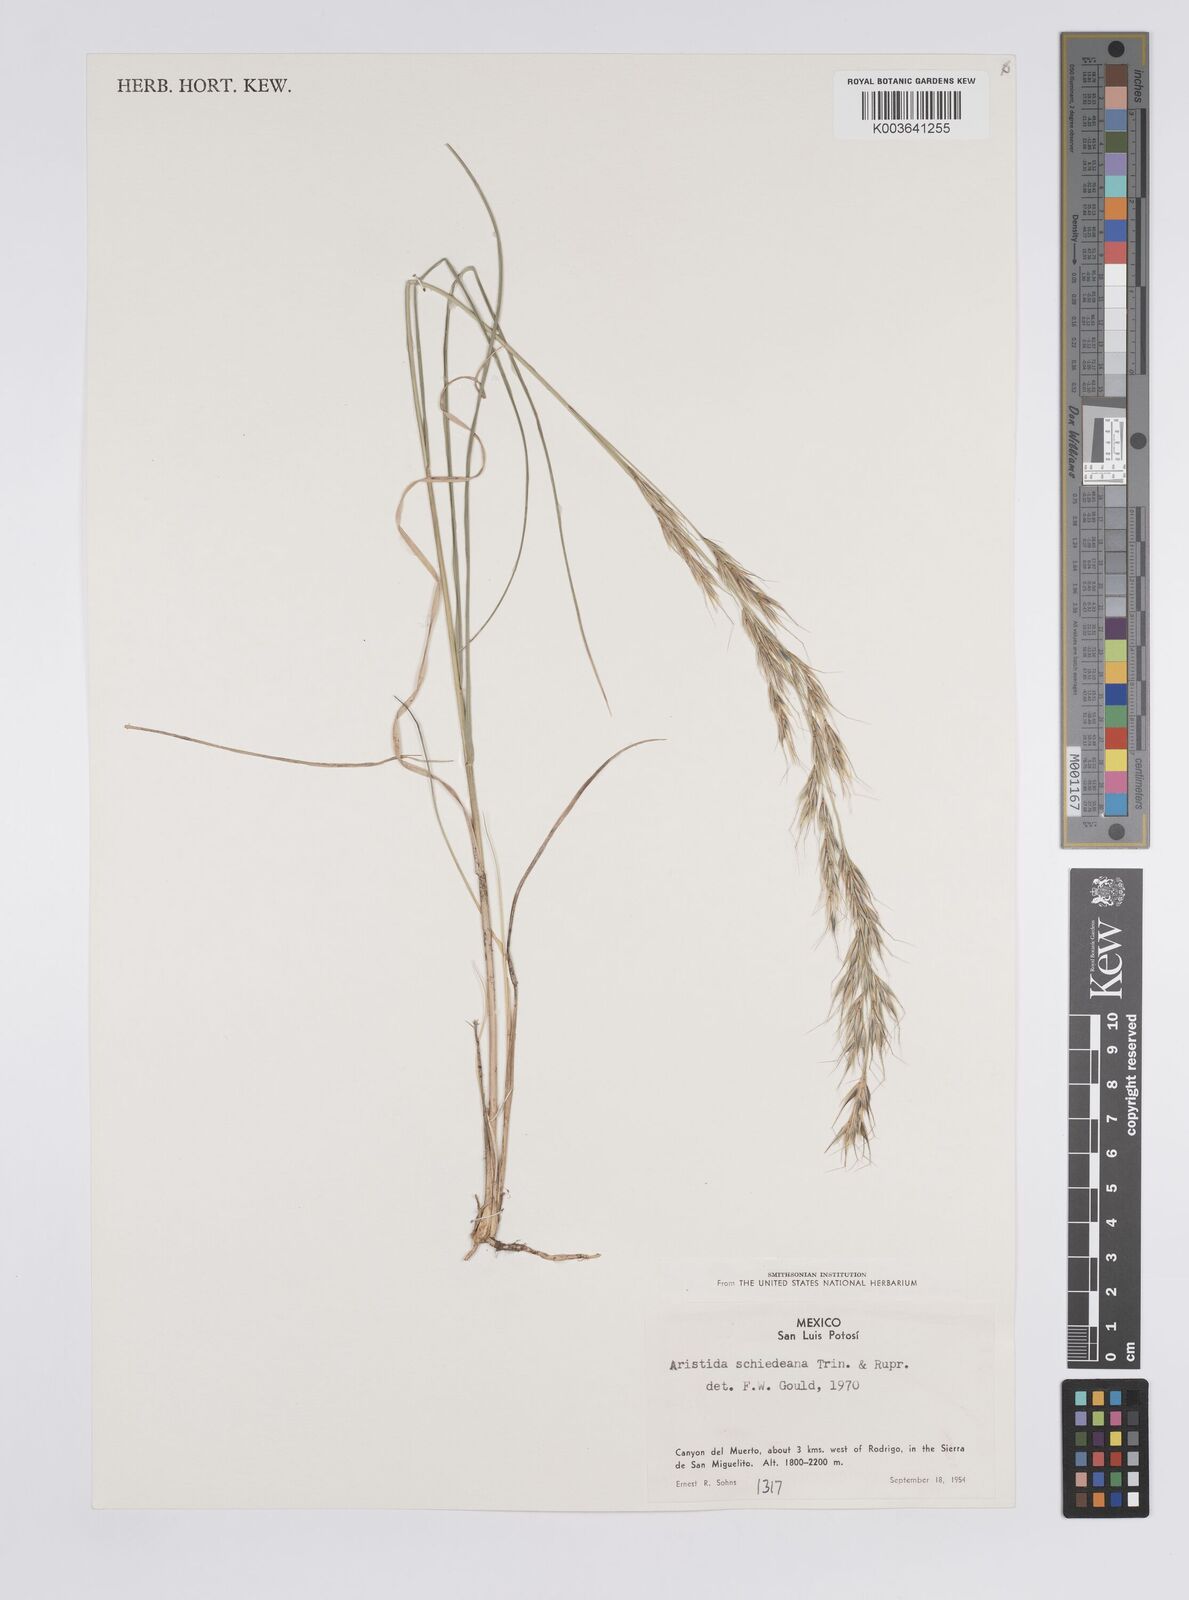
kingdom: Plantae
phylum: Tracheophyta
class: Liliopsida
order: Poales
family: Poaceae
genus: Aristida
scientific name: Aristida schiedeana
